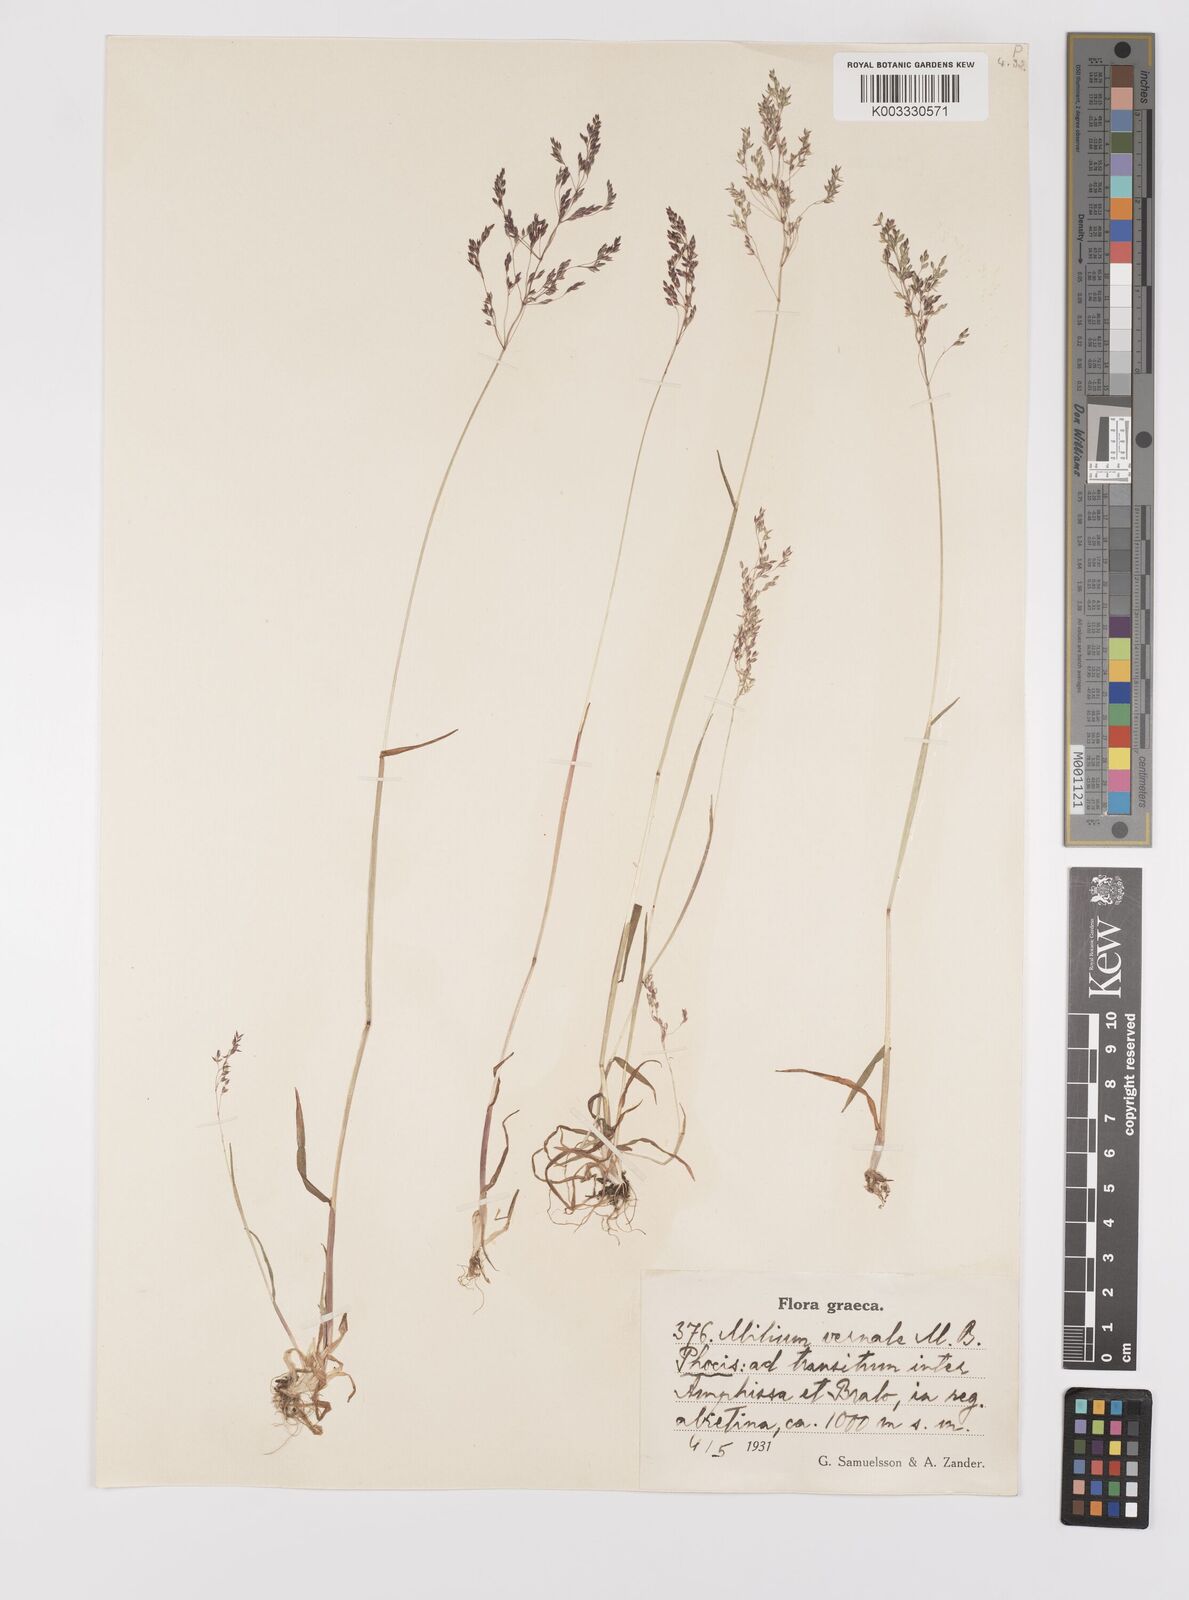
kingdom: Plantae
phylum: Tracheophyta
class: Liliopsida
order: Poales
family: Poaceae
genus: Milium
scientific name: Milium vernale
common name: Early millet
